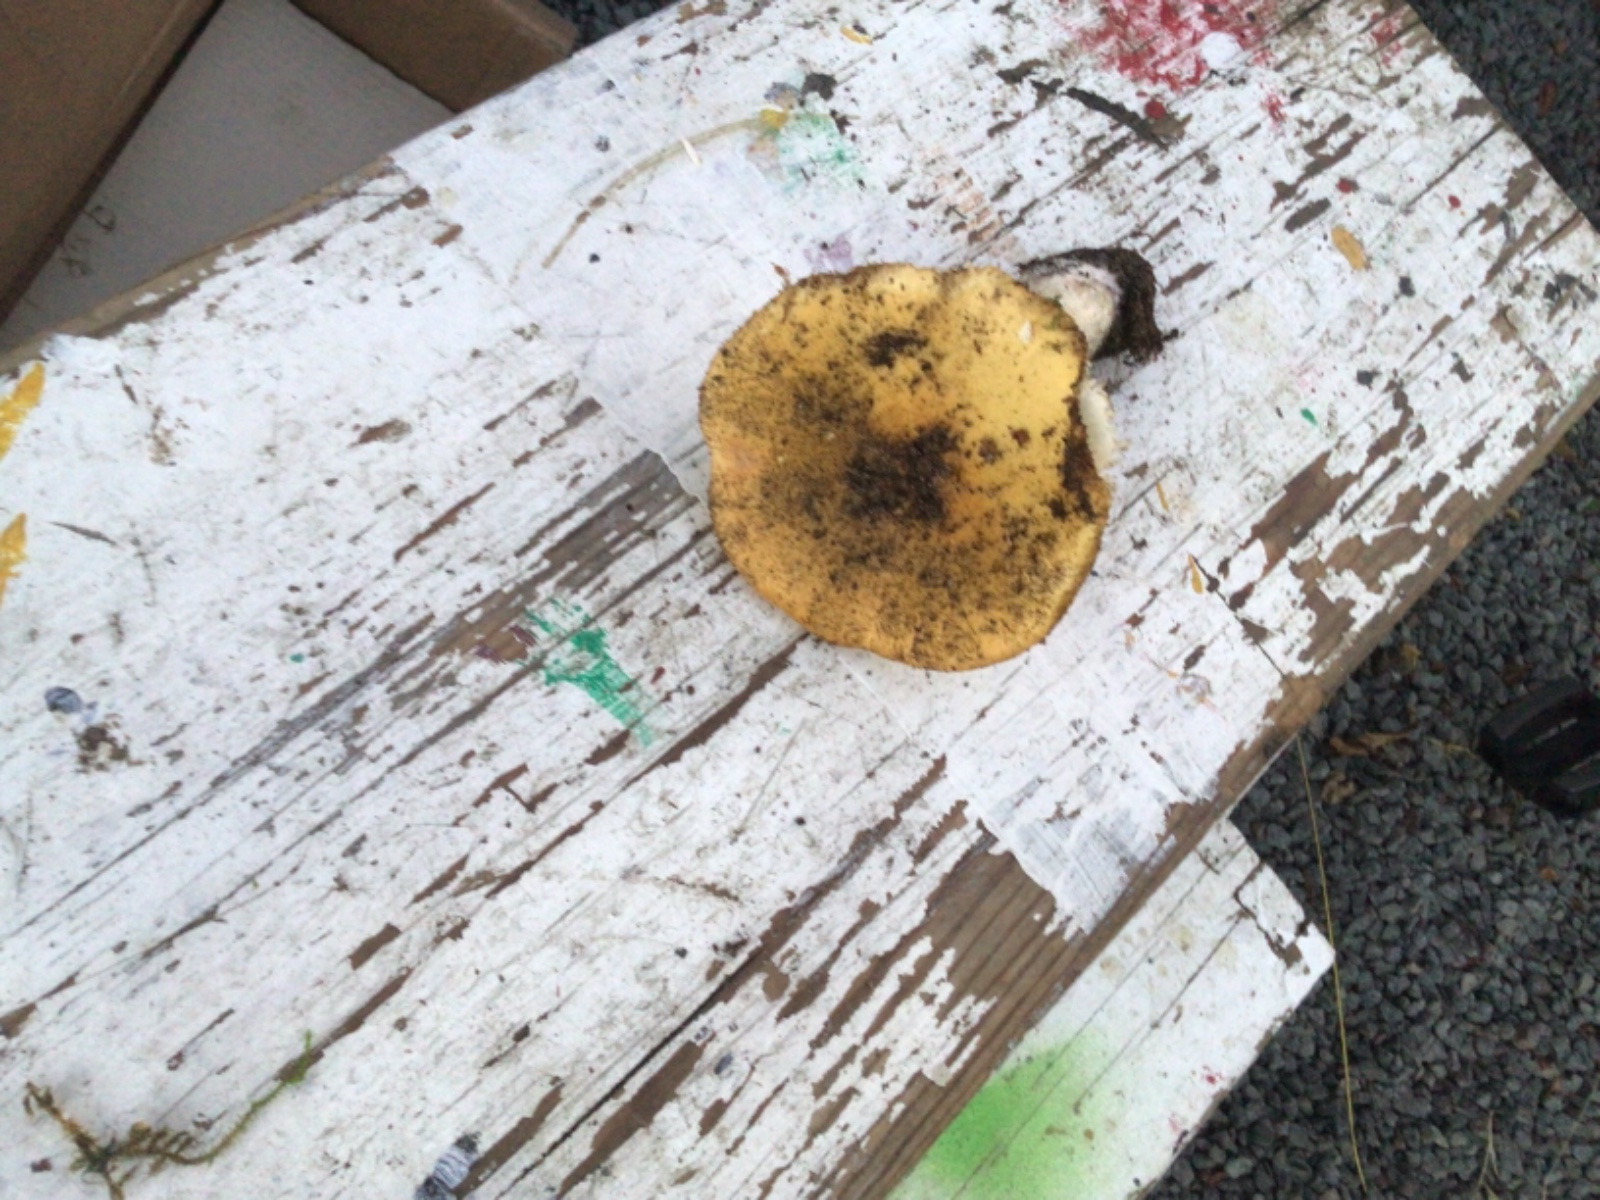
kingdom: Fungi
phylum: Basidiomycota
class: Agaricomycetes
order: Russulales
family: Russulaceae
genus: Russula
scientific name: Russula ochroleuca
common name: okkergul skørhat
